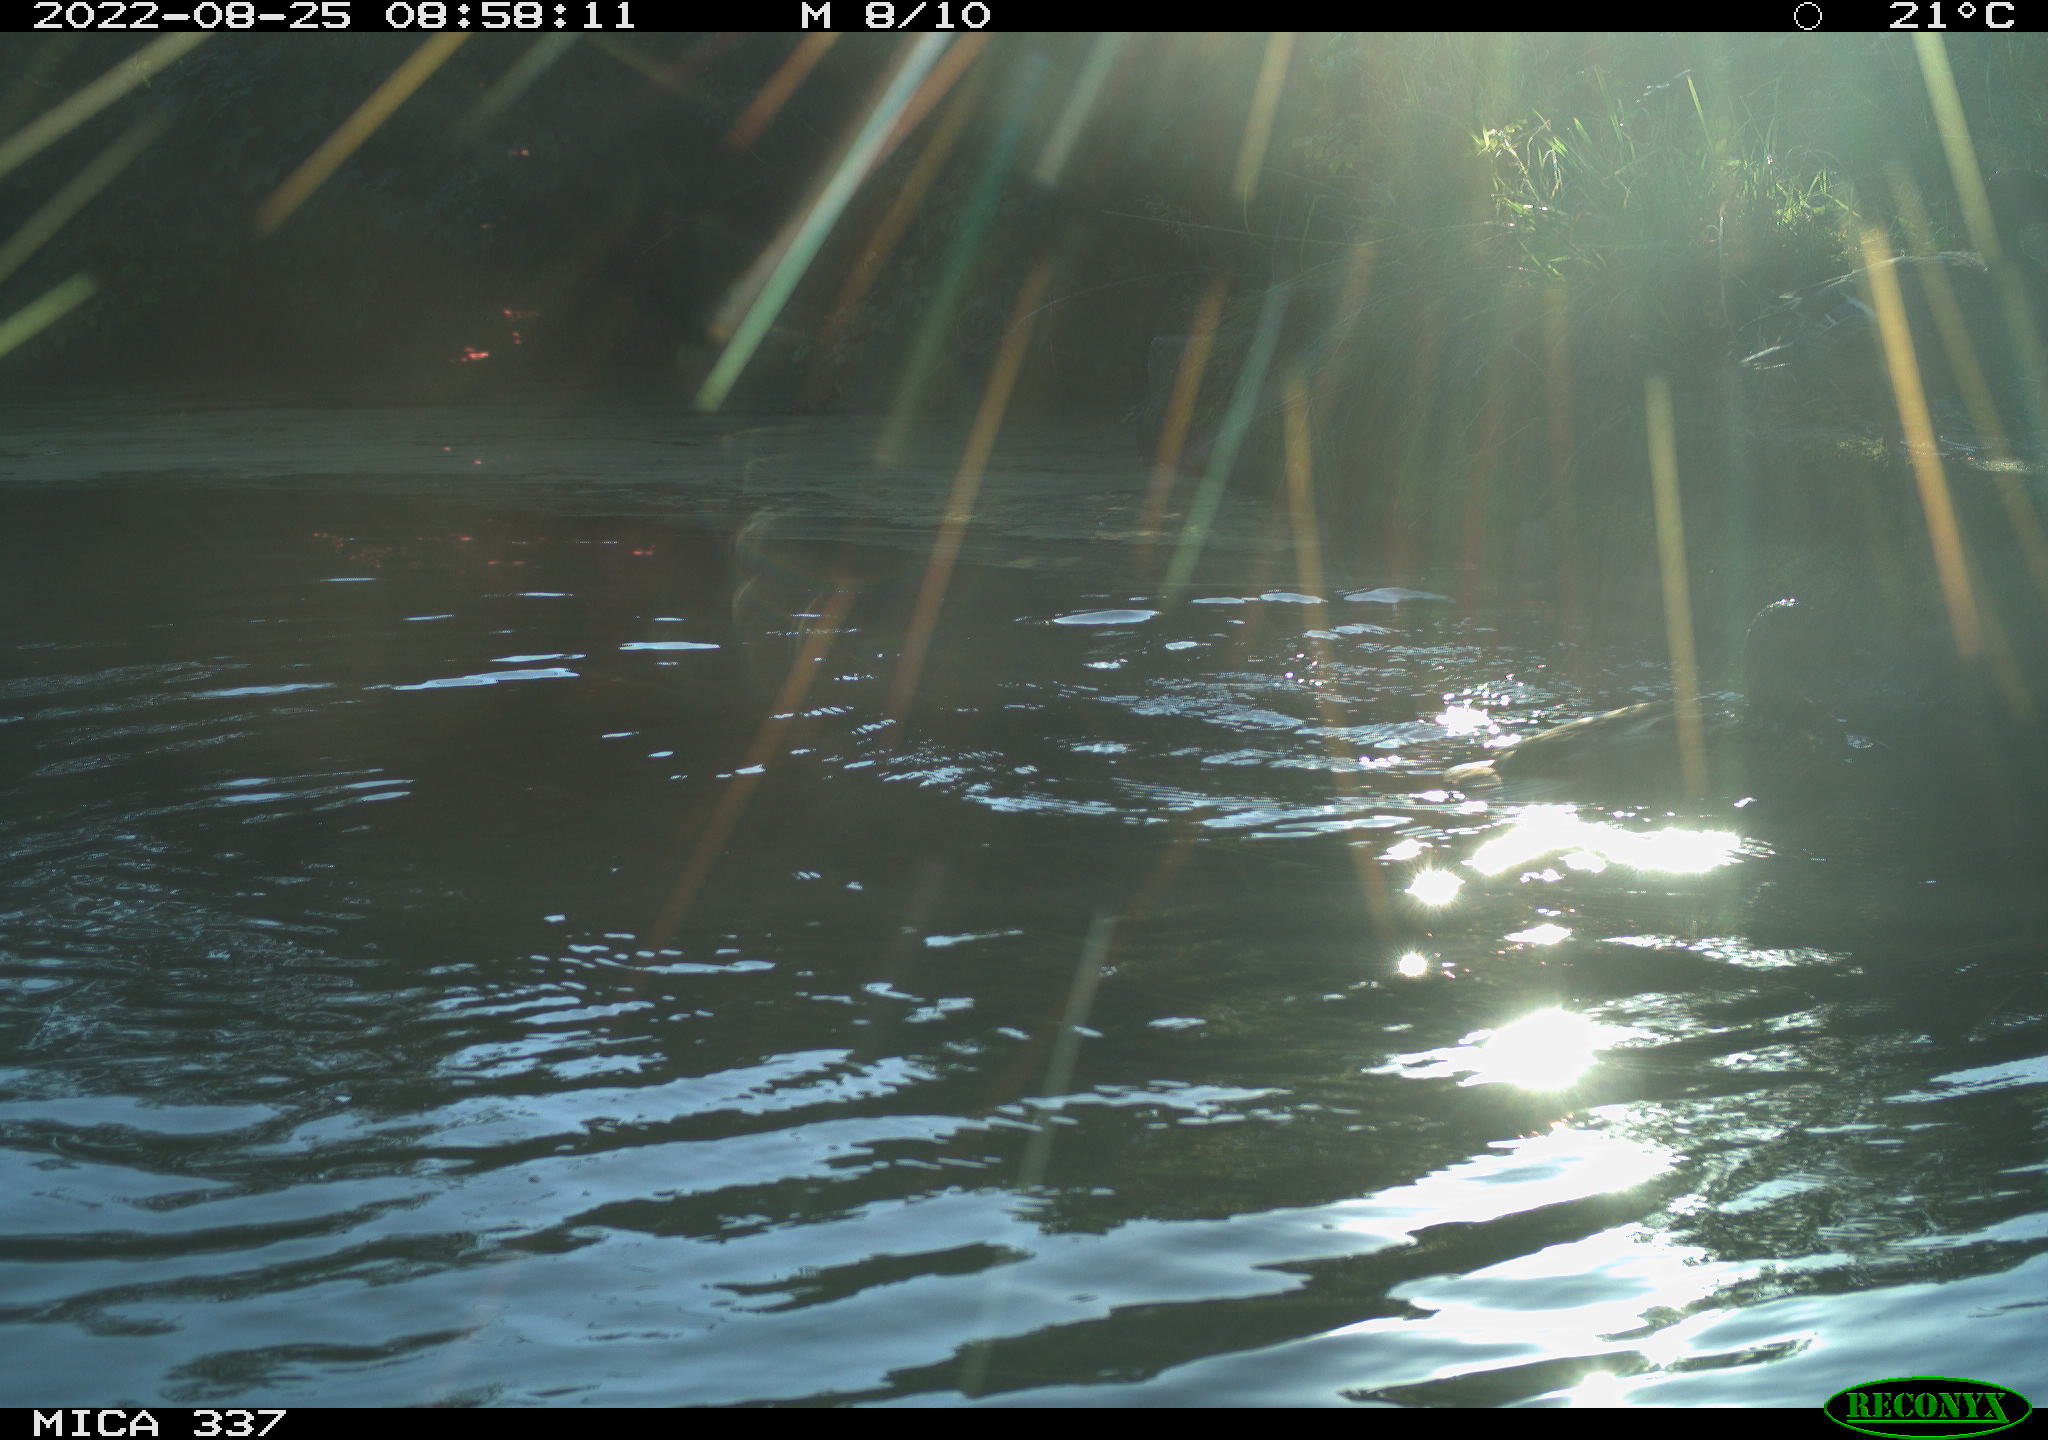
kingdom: Animalia
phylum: Chordata
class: Aves
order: Anseriformes
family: Anatidae
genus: Anas
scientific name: Anas platyrhynchos
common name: Mallard
